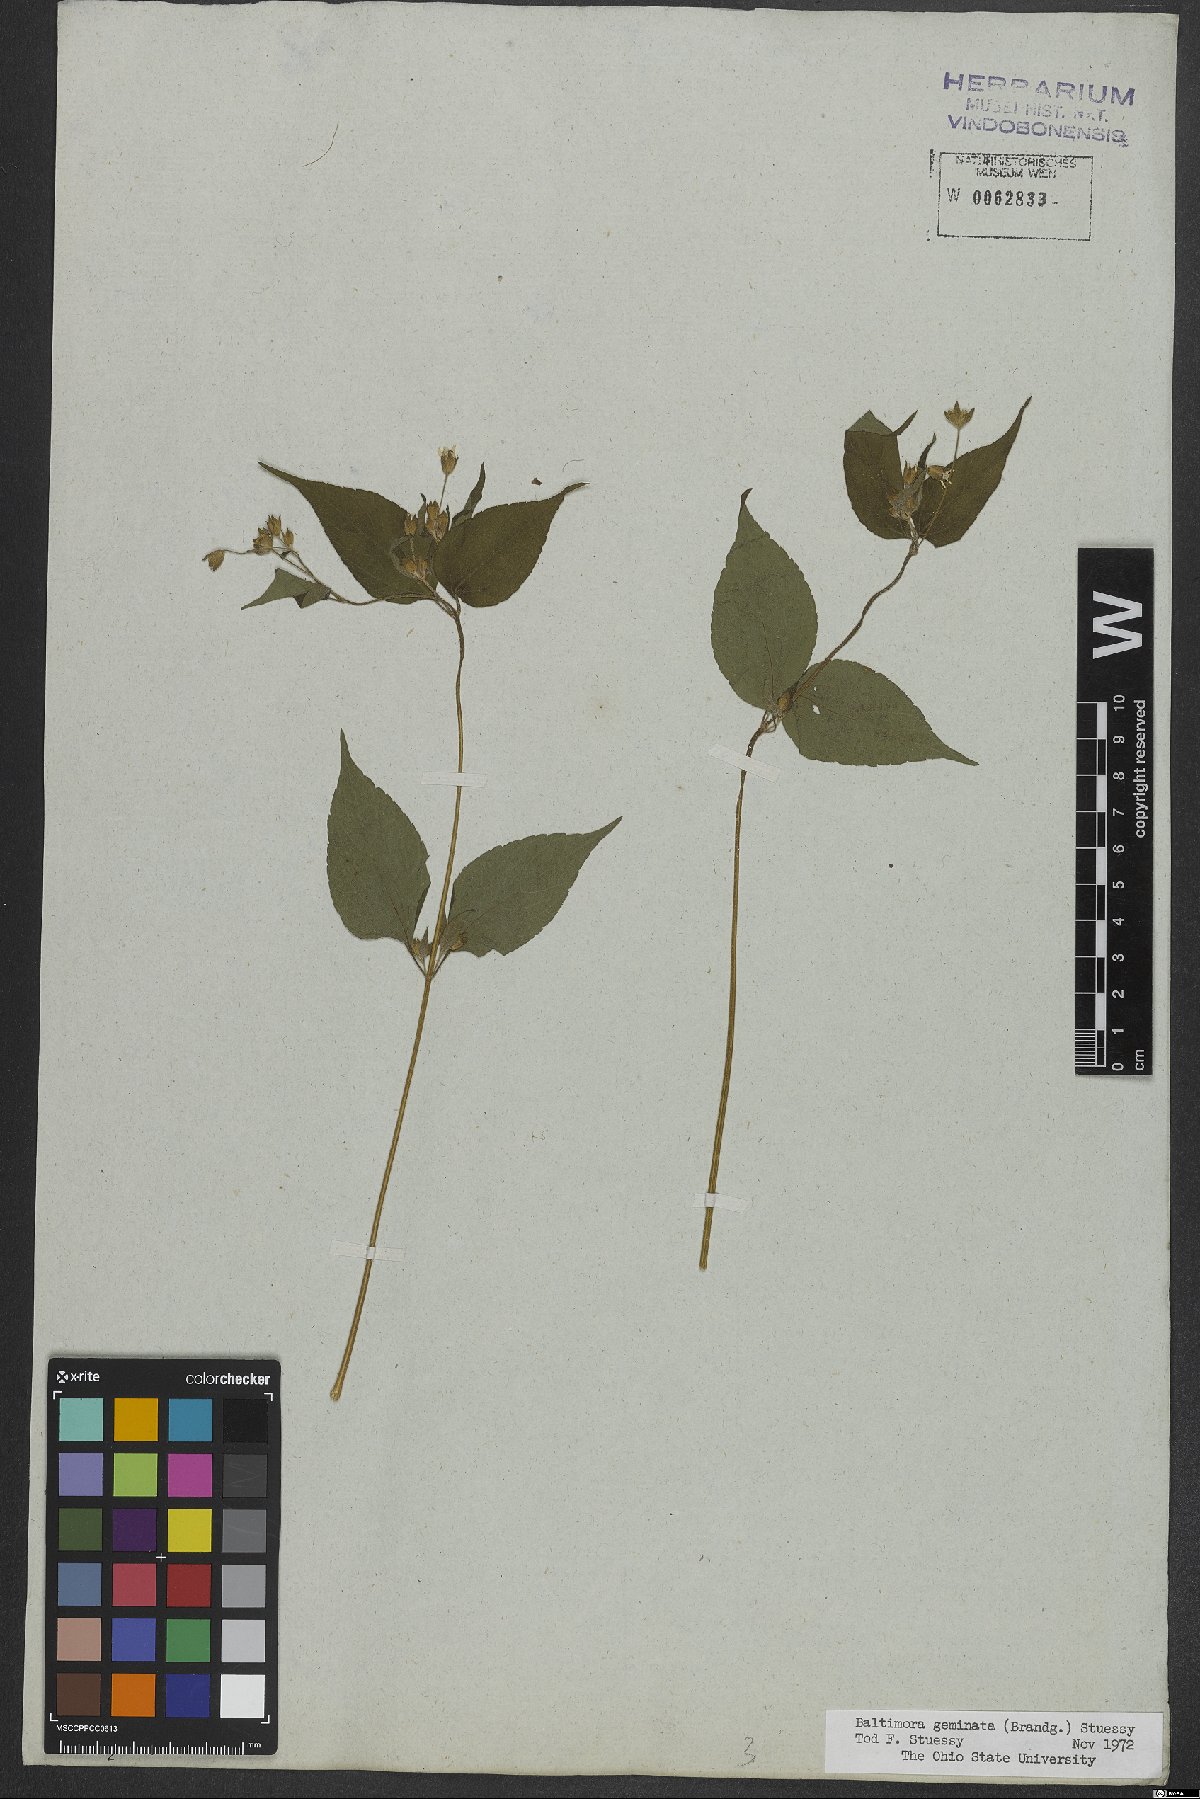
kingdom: Plantae
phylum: Tracheophyta
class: Magnoliopsida
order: Asterales
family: Asteraceae
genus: Baltimora
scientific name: Baltimora geminata
